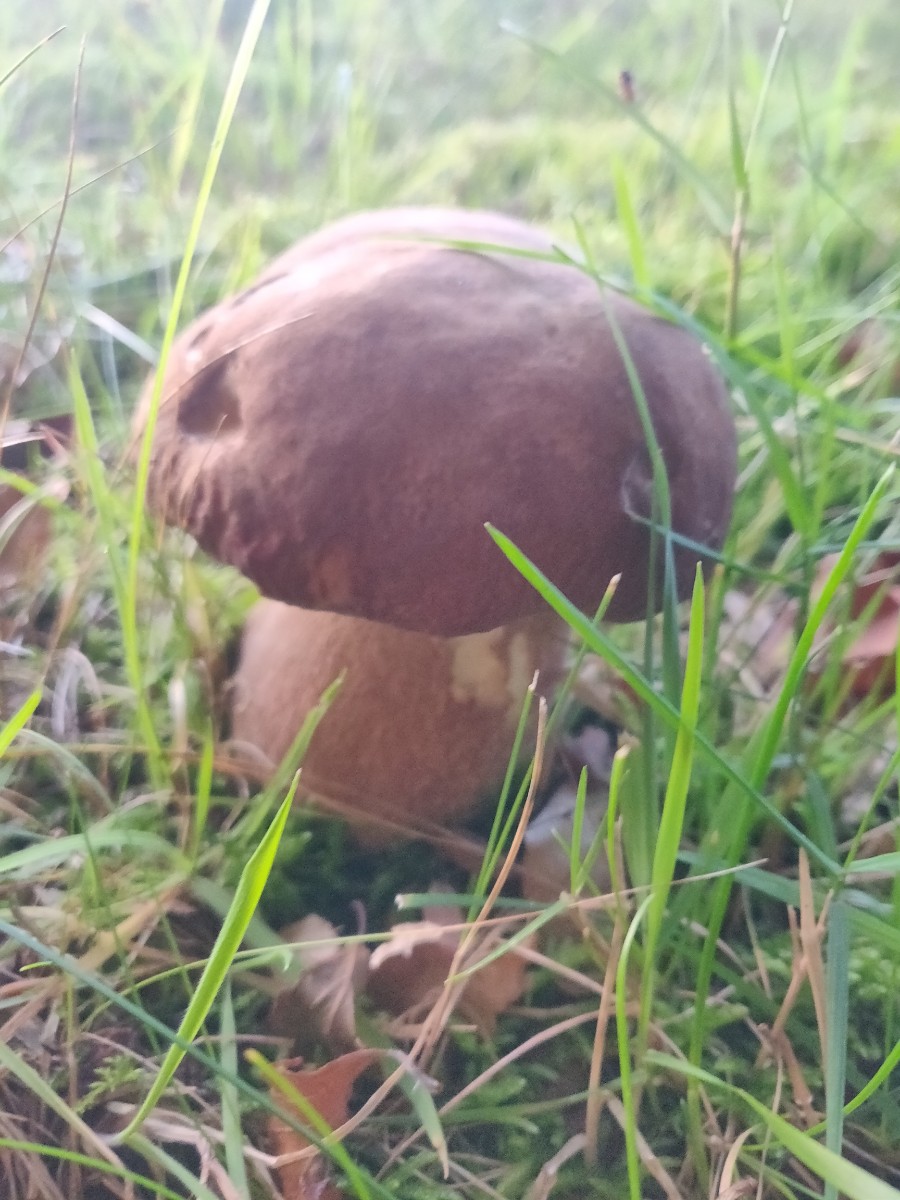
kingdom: Fungi
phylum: Basidiomycota
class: Agaricomycetes
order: Boletales
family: Boletaceae
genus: Boletus
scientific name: Boletus
